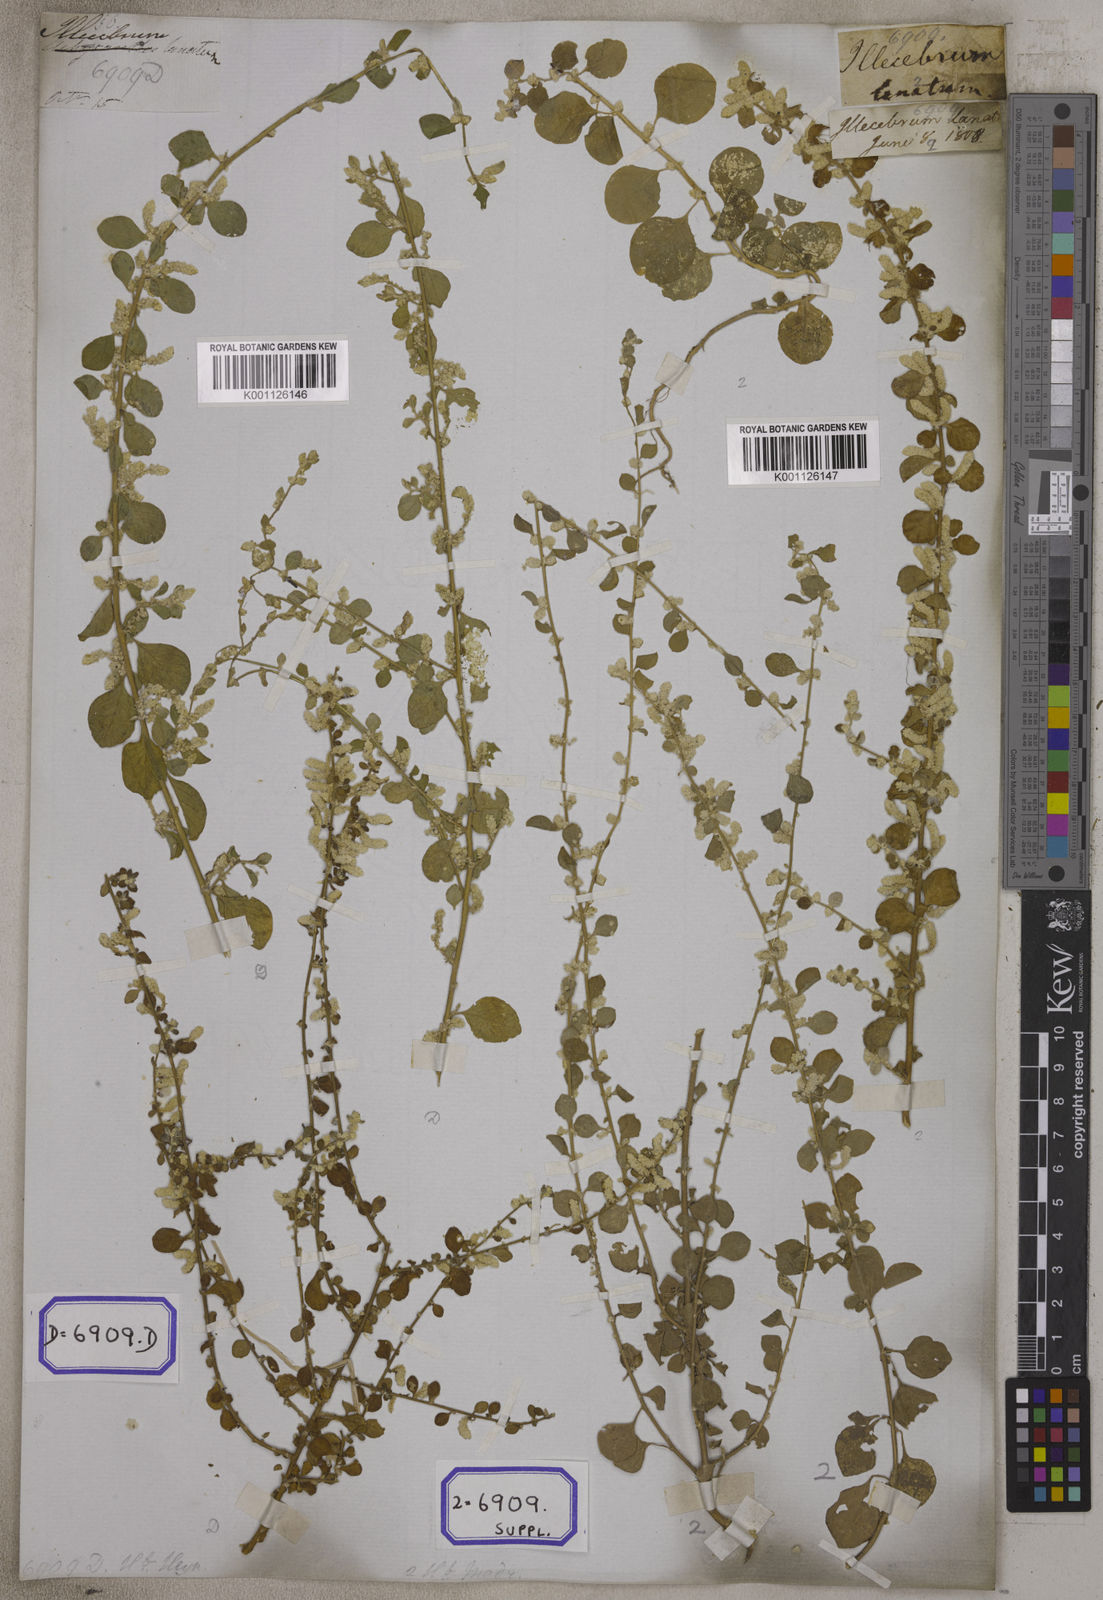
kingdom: Plantae
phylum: Tracheophyta
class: Magnoliopsida
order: Caryophyllales
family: Amaranthaceae
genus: Aerva
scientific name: Aerva
